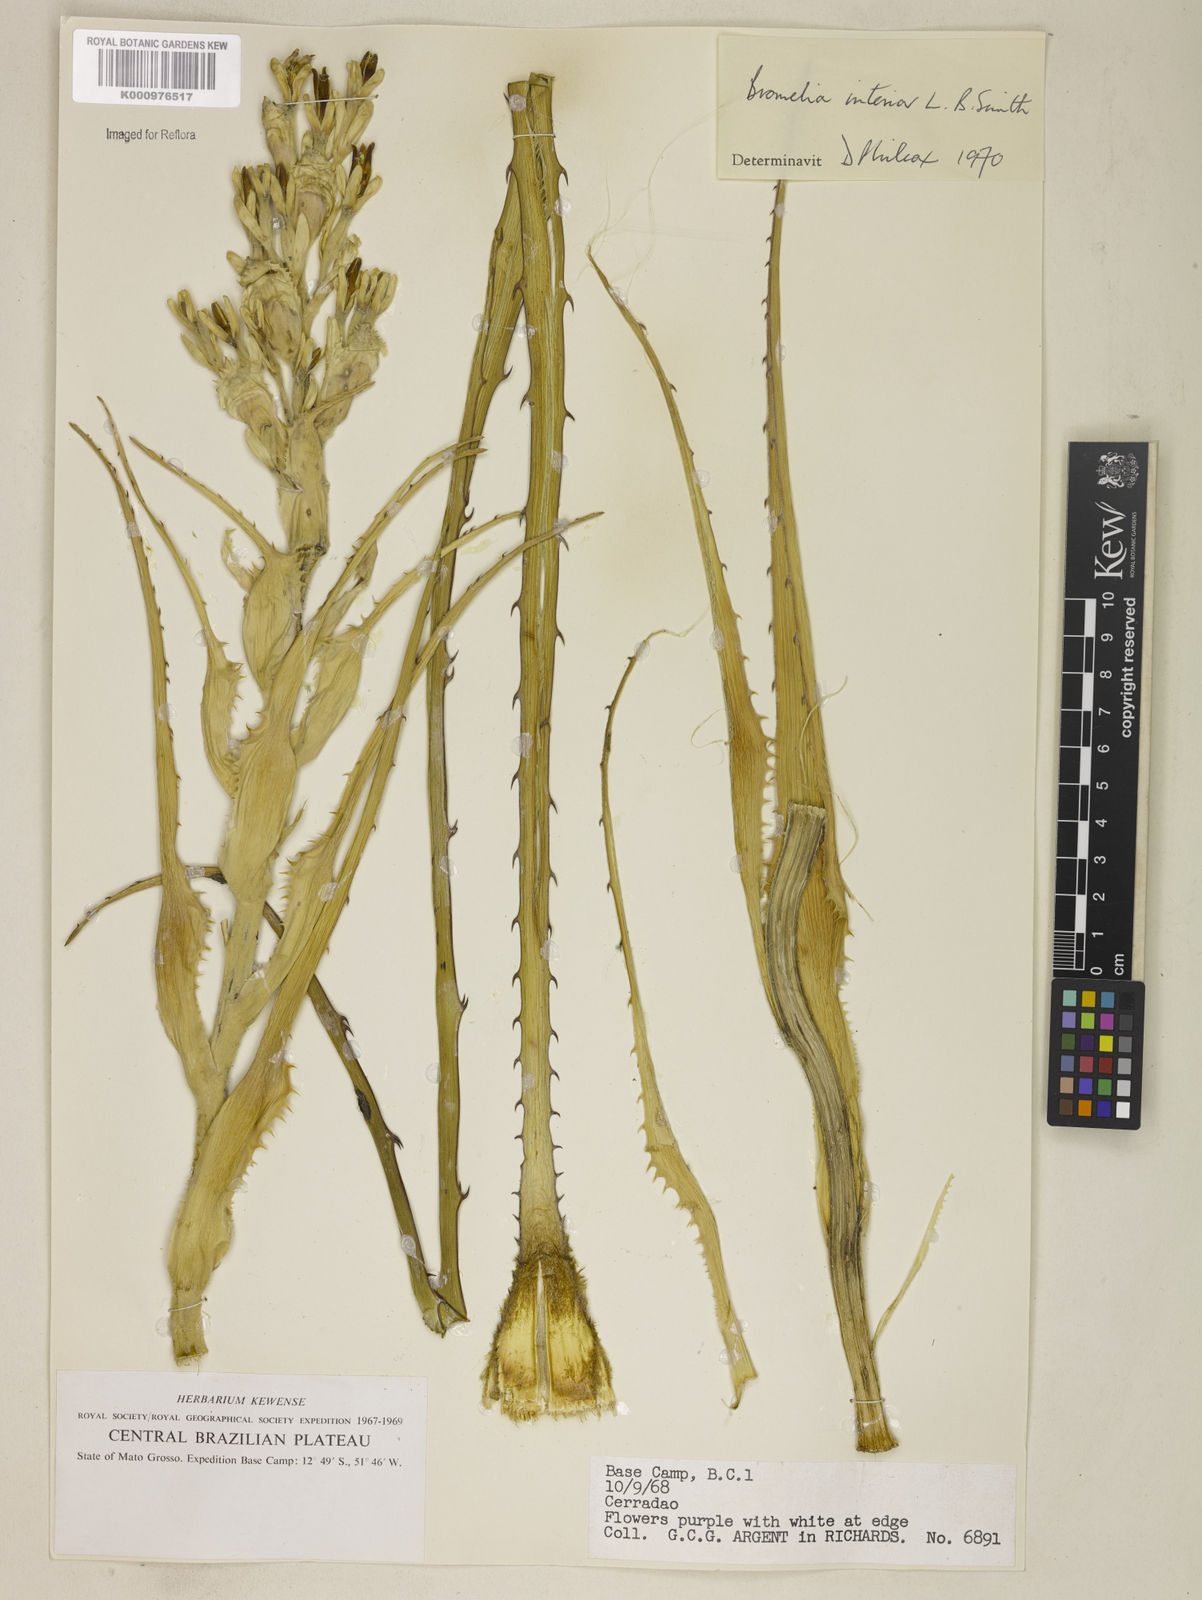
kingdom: Plantae
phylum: Tracheophyta
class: Liliopsida
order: Poales
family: Bromeliaceae
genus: Bromelia
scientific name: Bromelia interior
